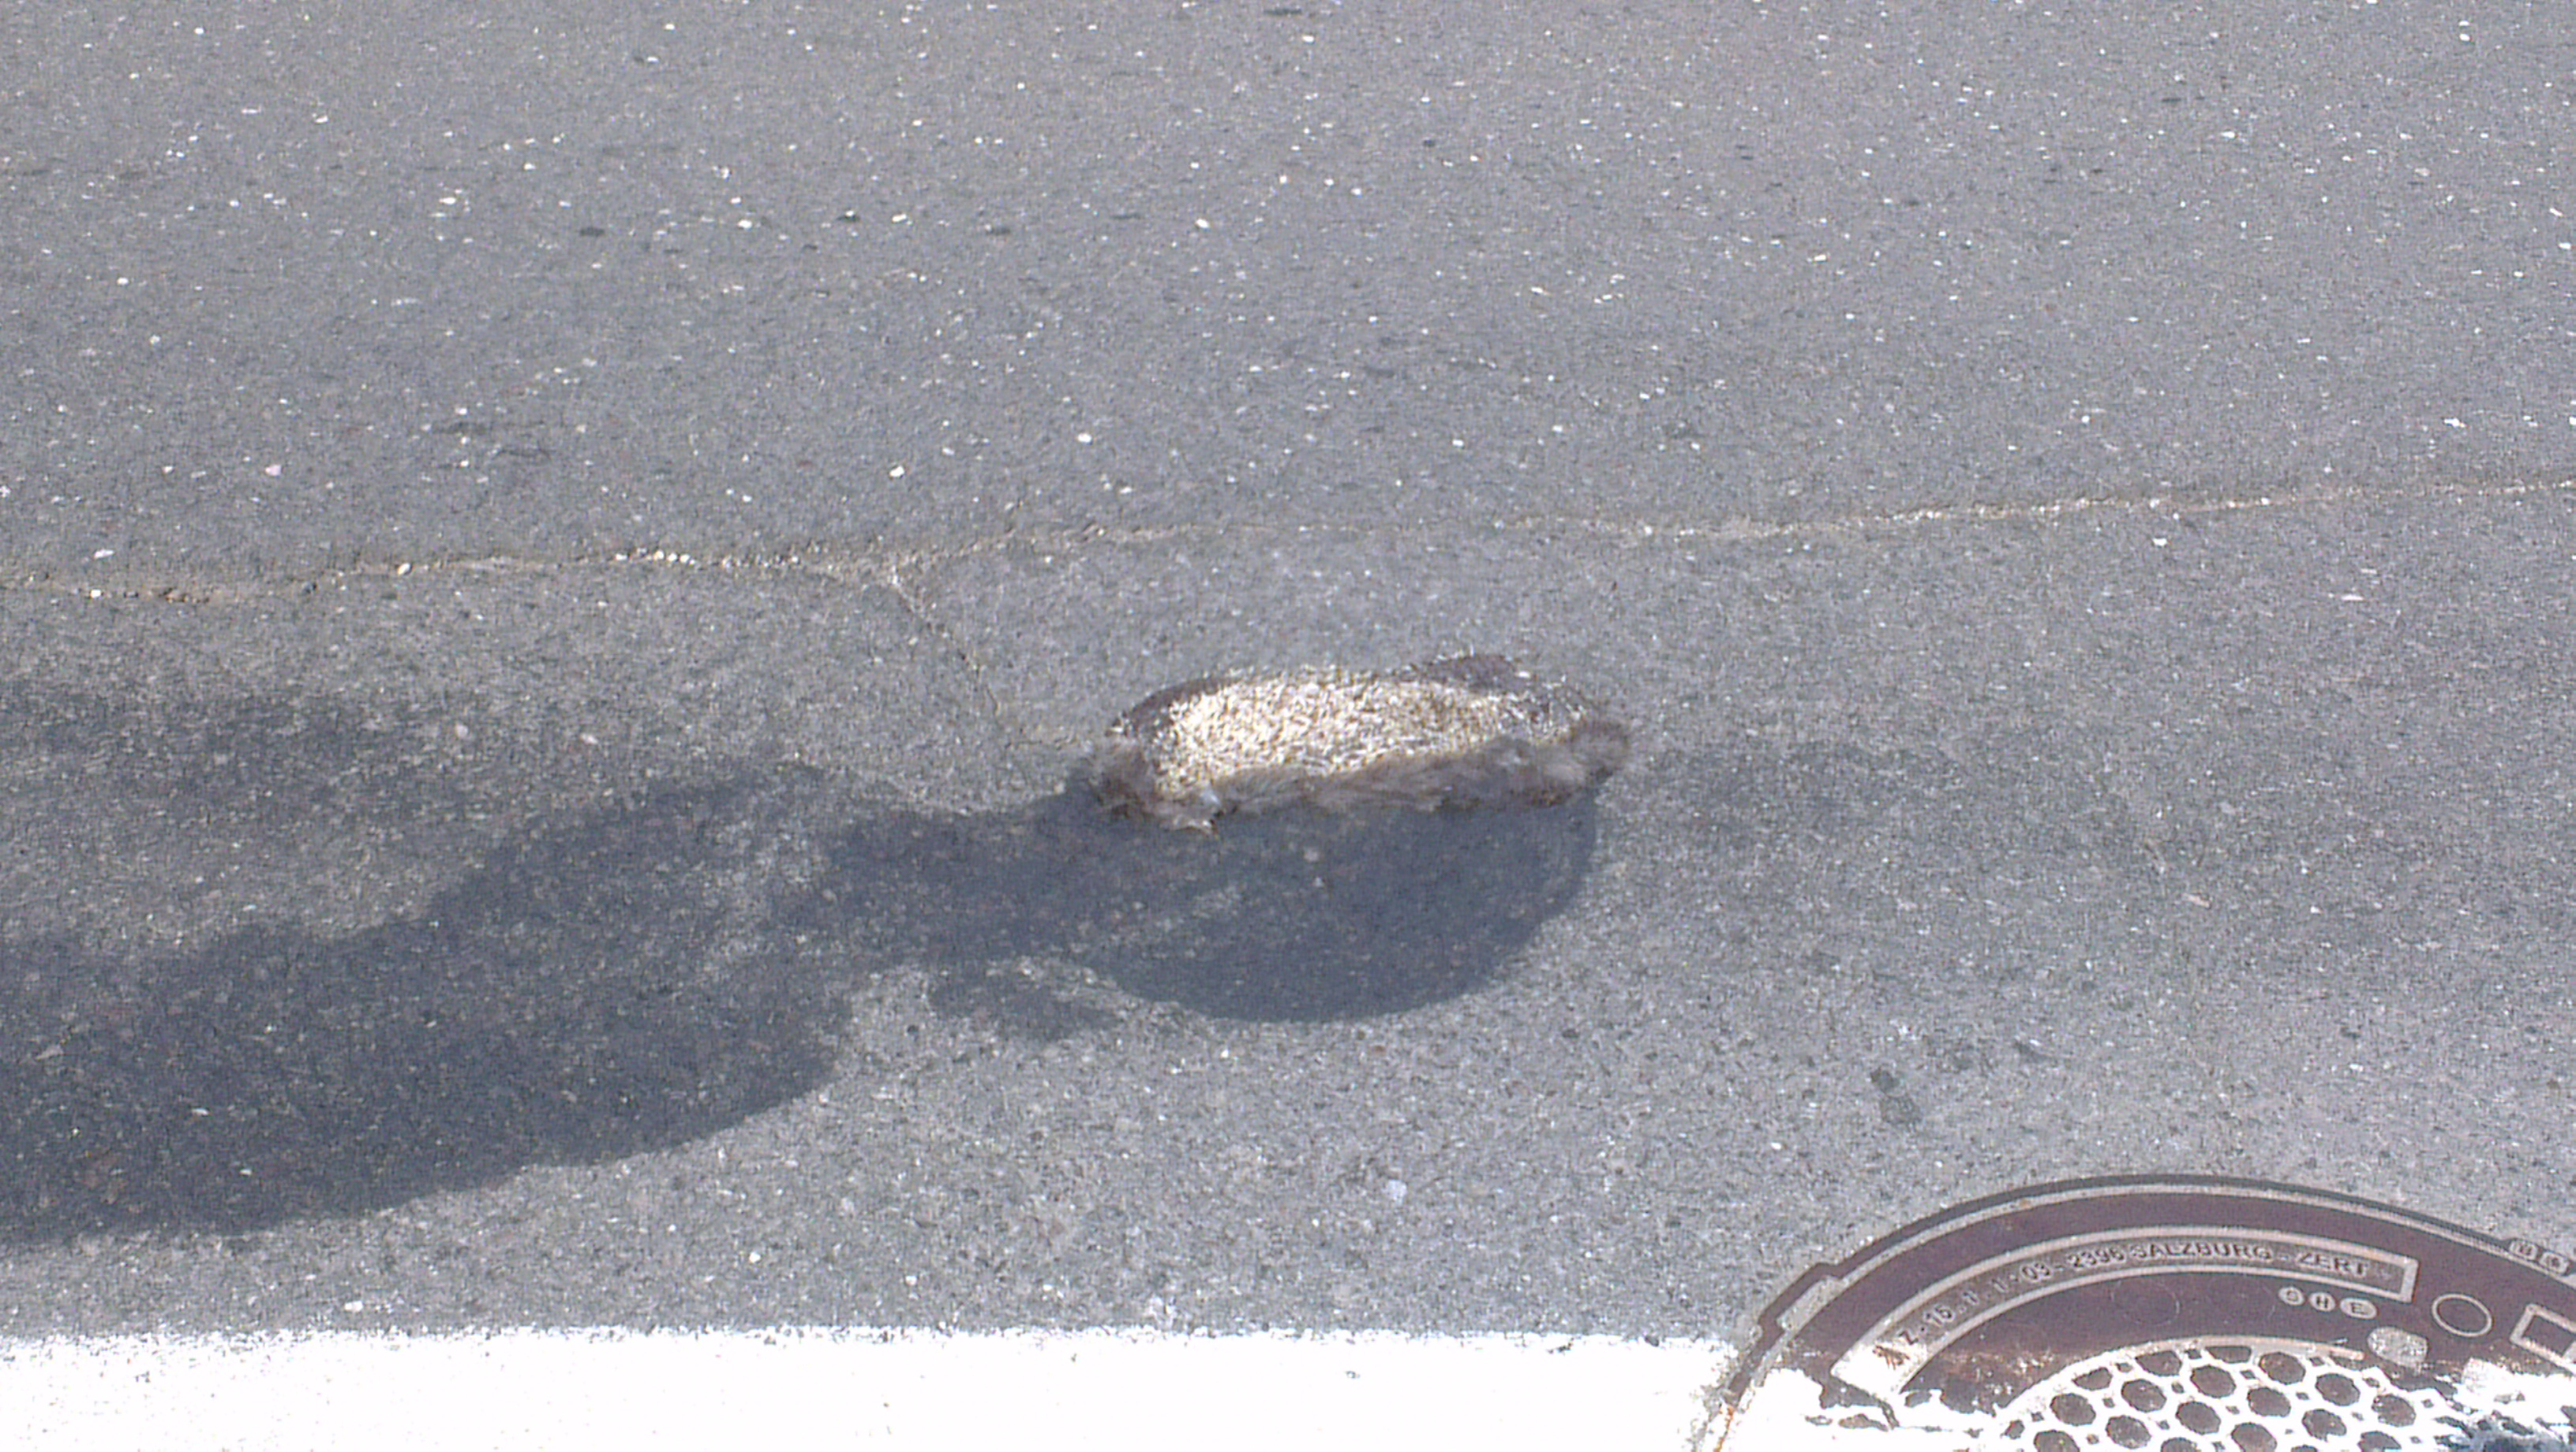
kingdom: Animalia
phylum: Chordata
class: Mammalia
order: Erinaceomorpha
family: Erinaceidae
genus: Erinaceus
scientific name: Erinaceus
